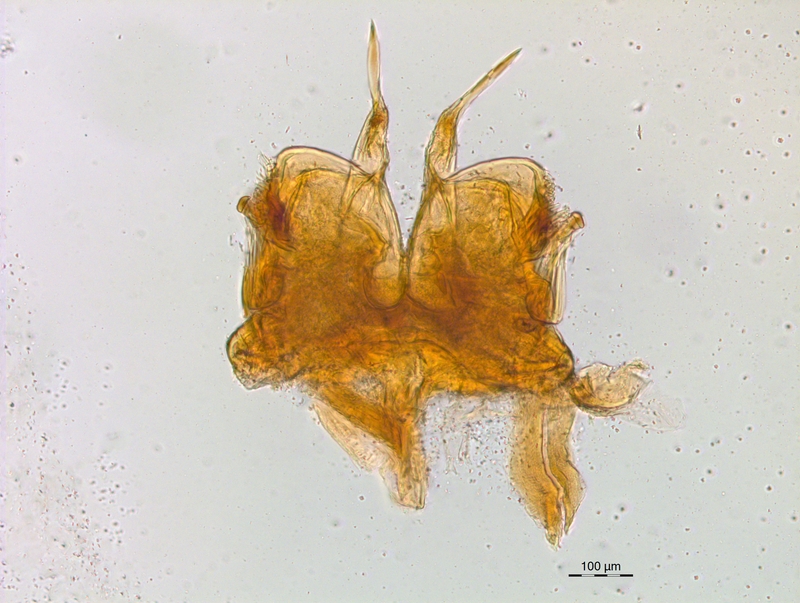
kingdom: Animalia
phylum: Arthropoda
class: Diplopoda
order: Chordeumatida
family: Craspedosomatidae
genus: Craspedosoma
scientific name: Craspedosoma rawlinsii
